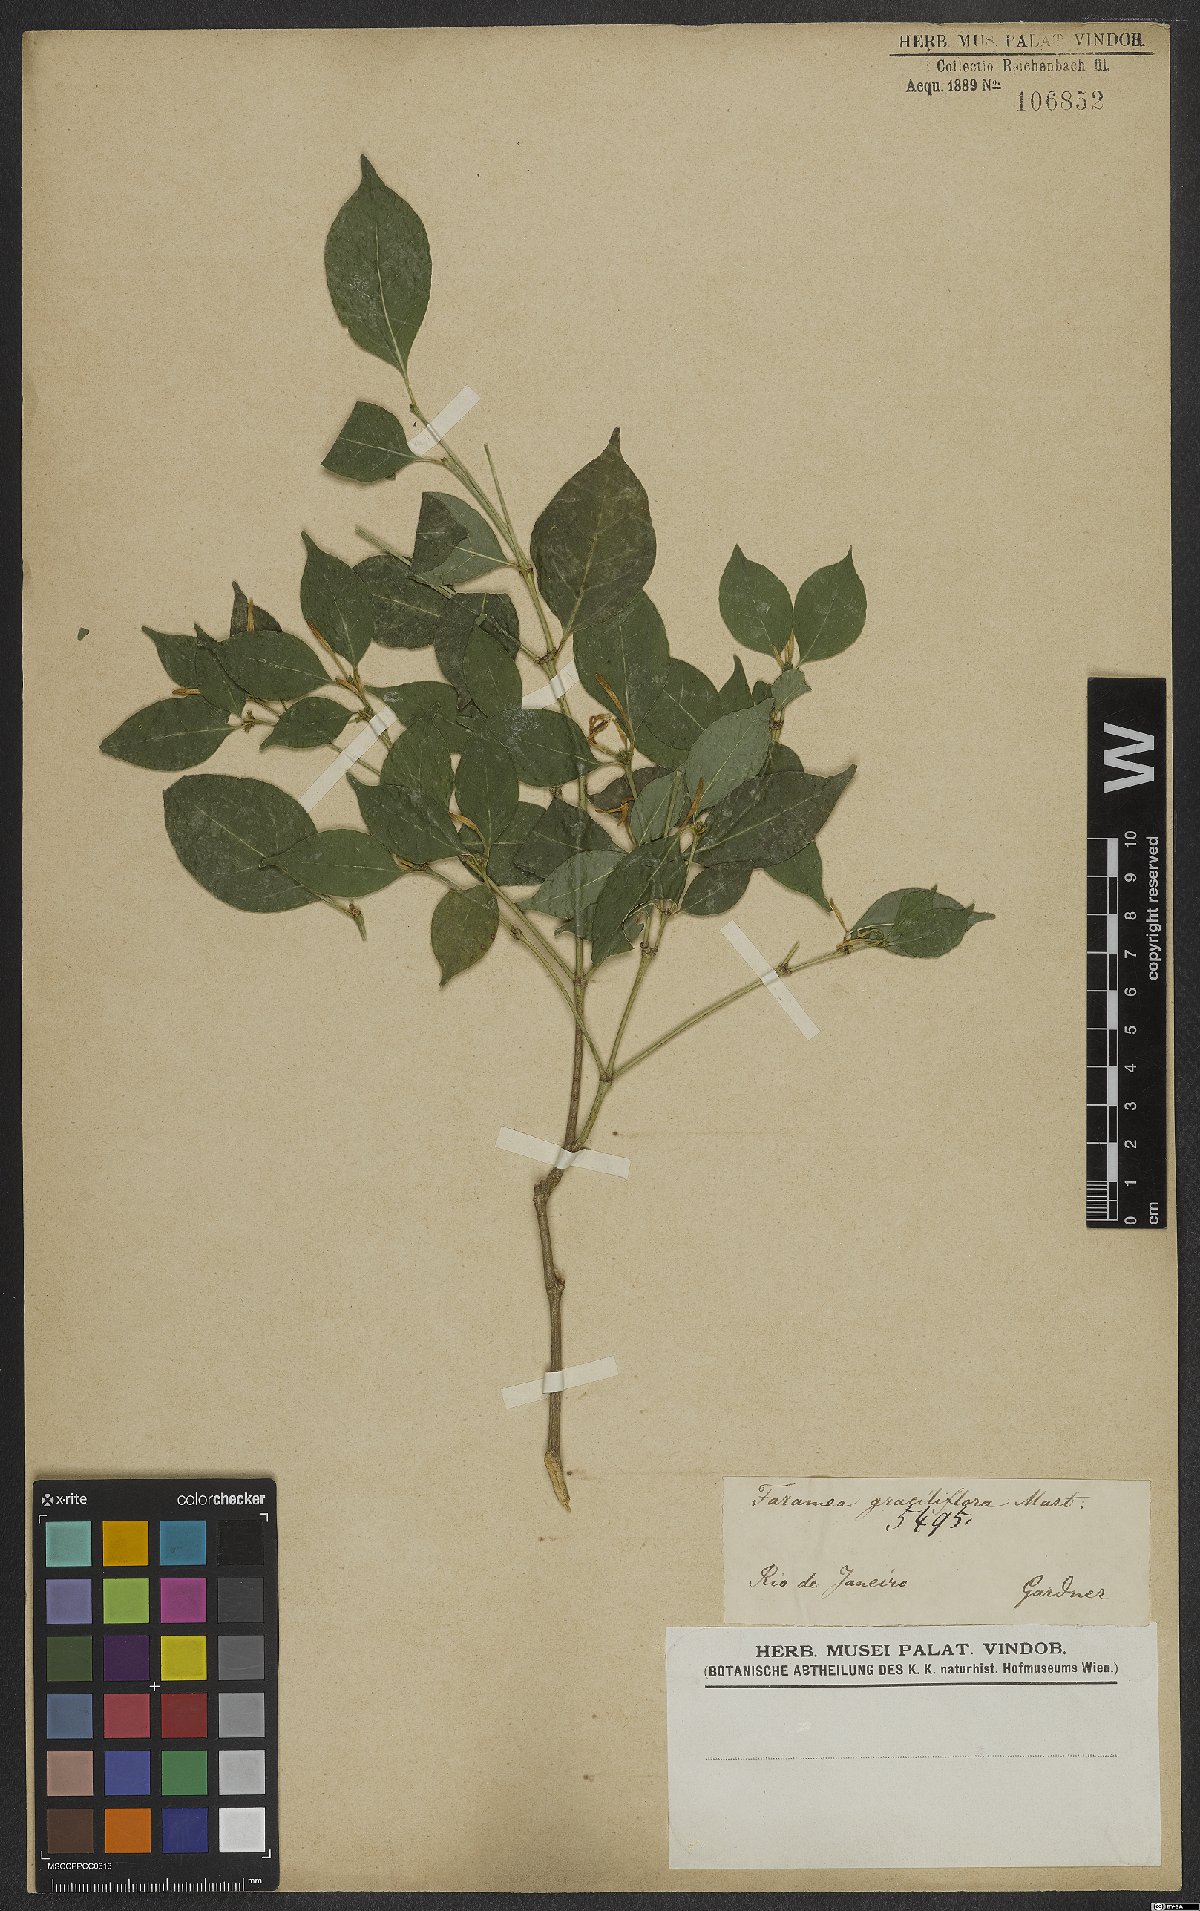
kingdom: Plantae
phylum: Tracheophyta
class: Magnoliopsida
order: Gentianales
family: Rubiaceae
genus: Coussarea
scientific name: Coussarea graciliflora
